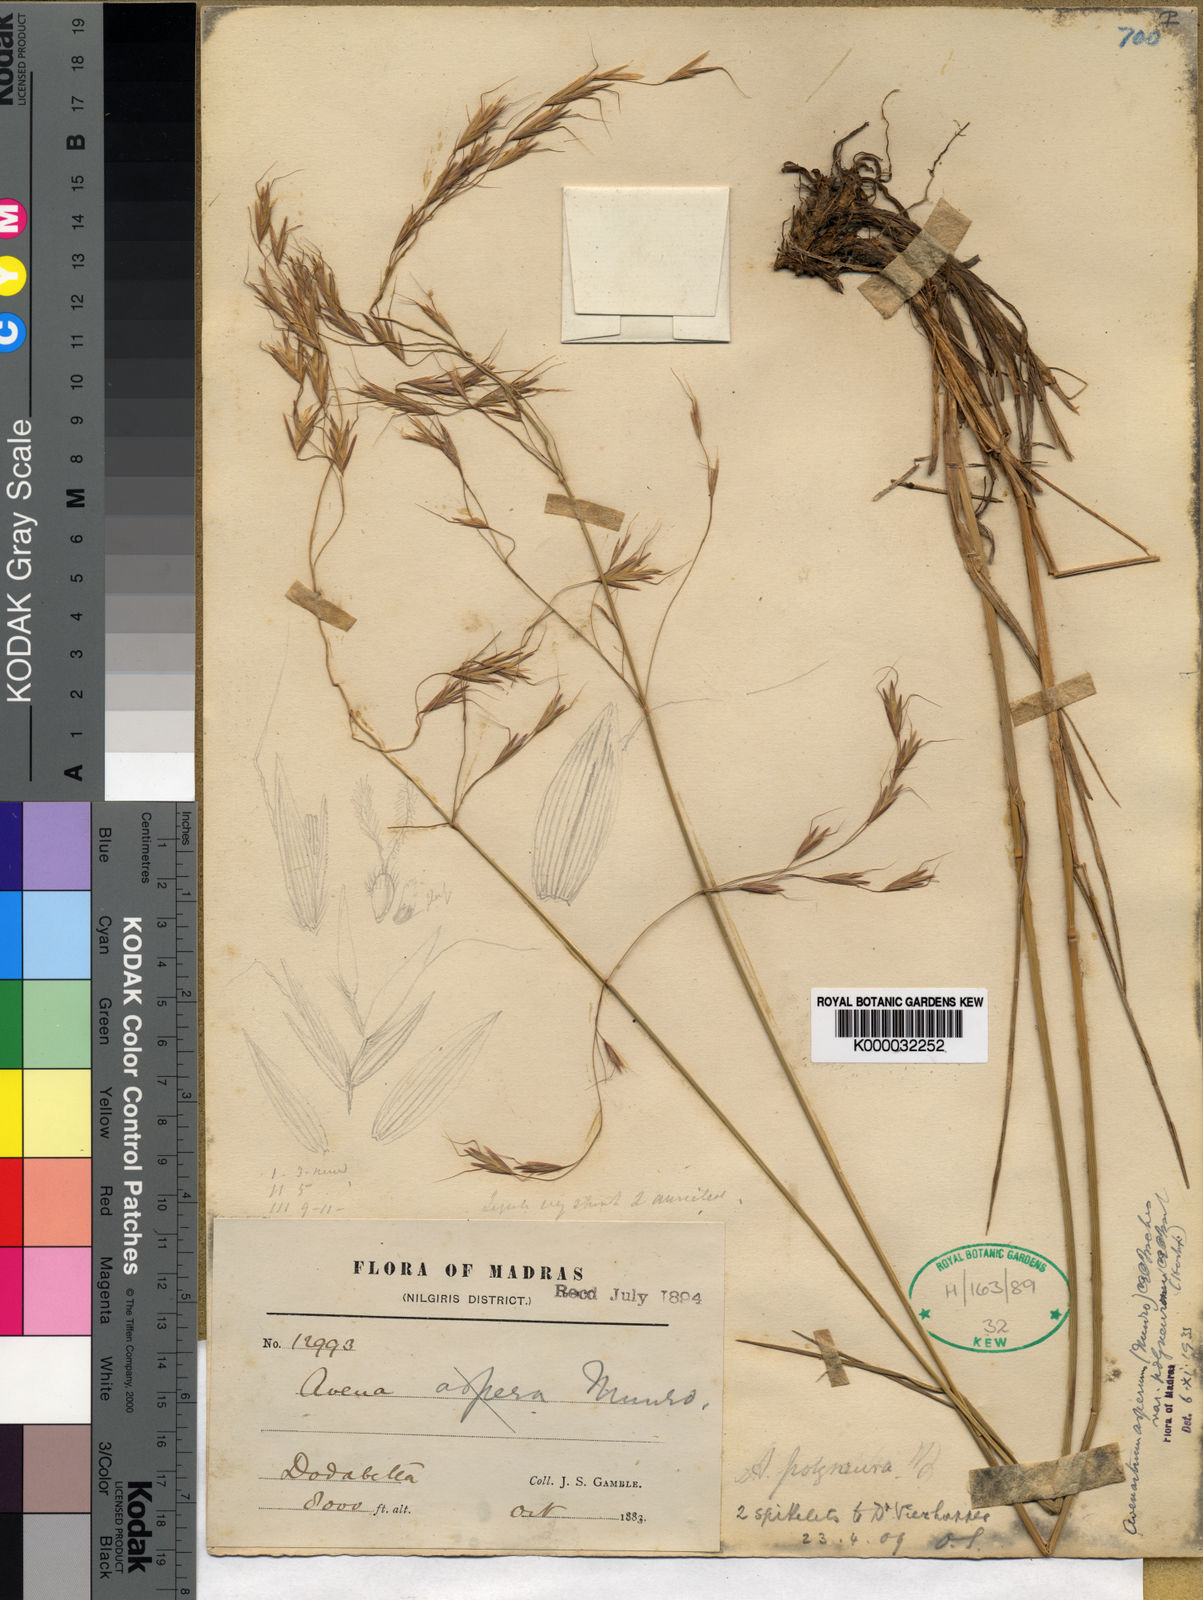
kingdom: Plantae
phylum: Tracheophyta
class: Liliopsida
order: Poales
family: Poaceae
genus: Helictotrichon
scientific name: Helictotrichon polyneurum
